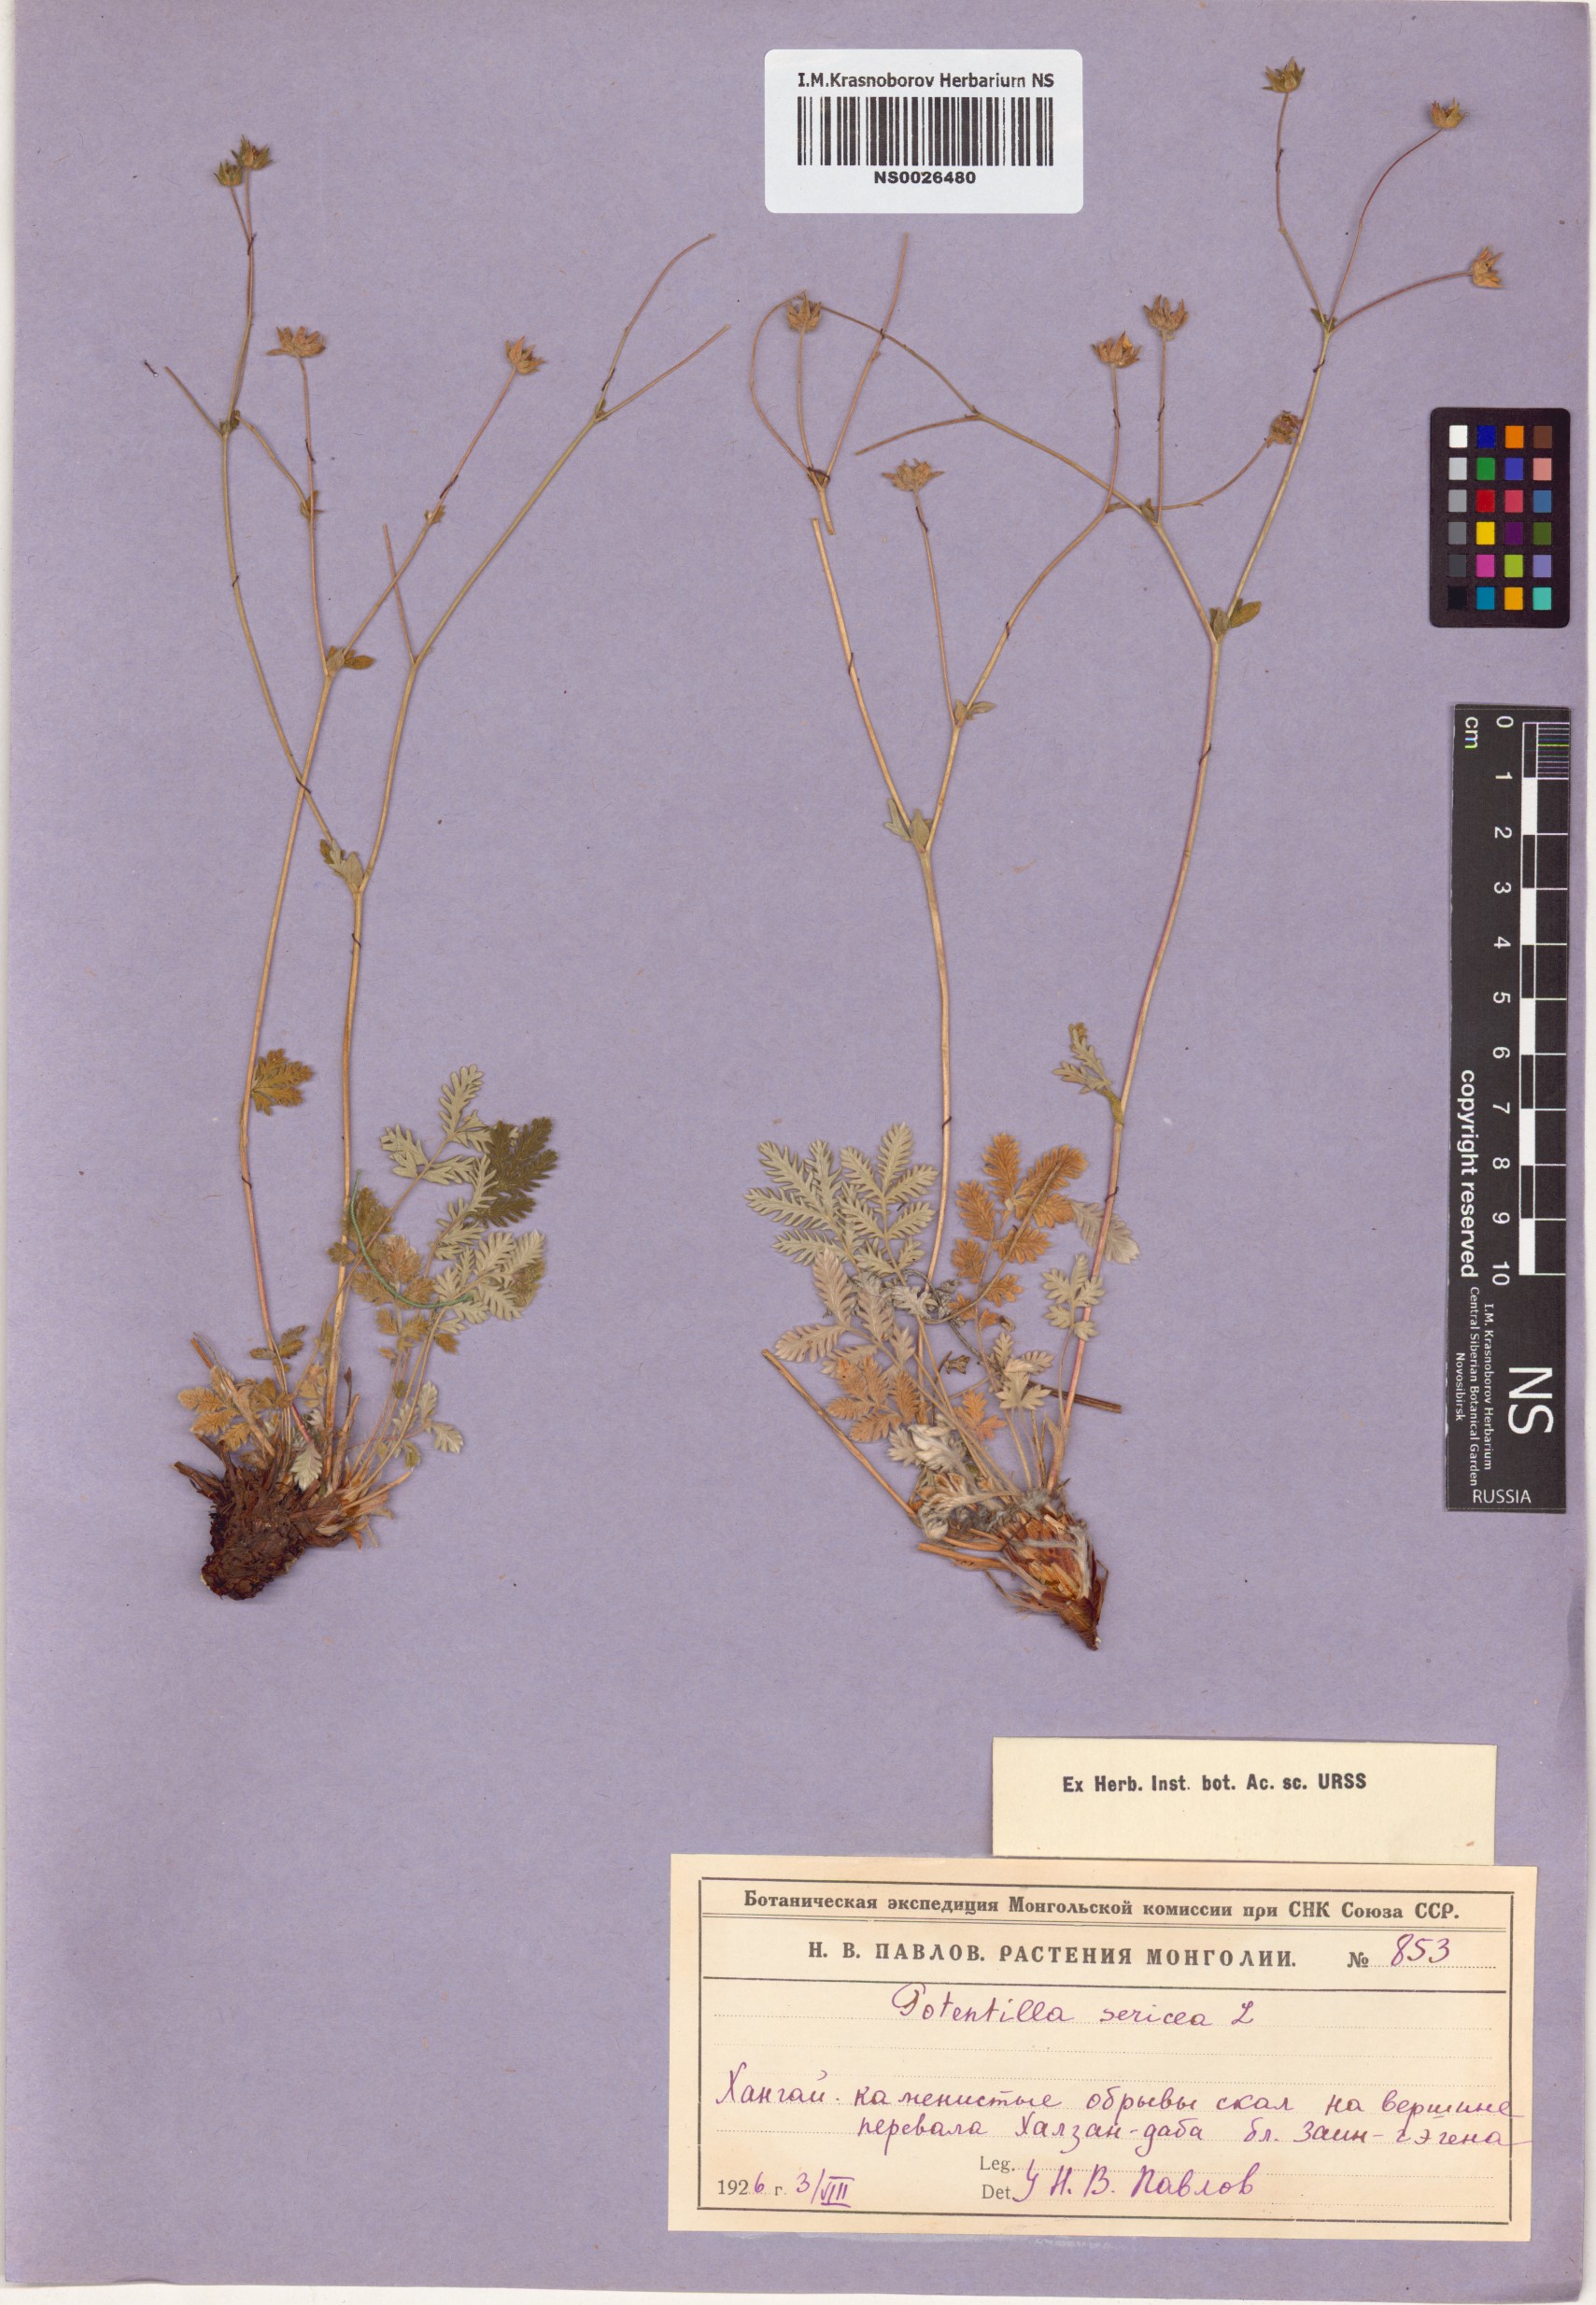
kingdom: Plantae
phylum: Tracheophyta
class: Magnoliopsida
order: Rosales
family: Rosaceae
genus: Potentilla
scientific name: Potentilla sericea
